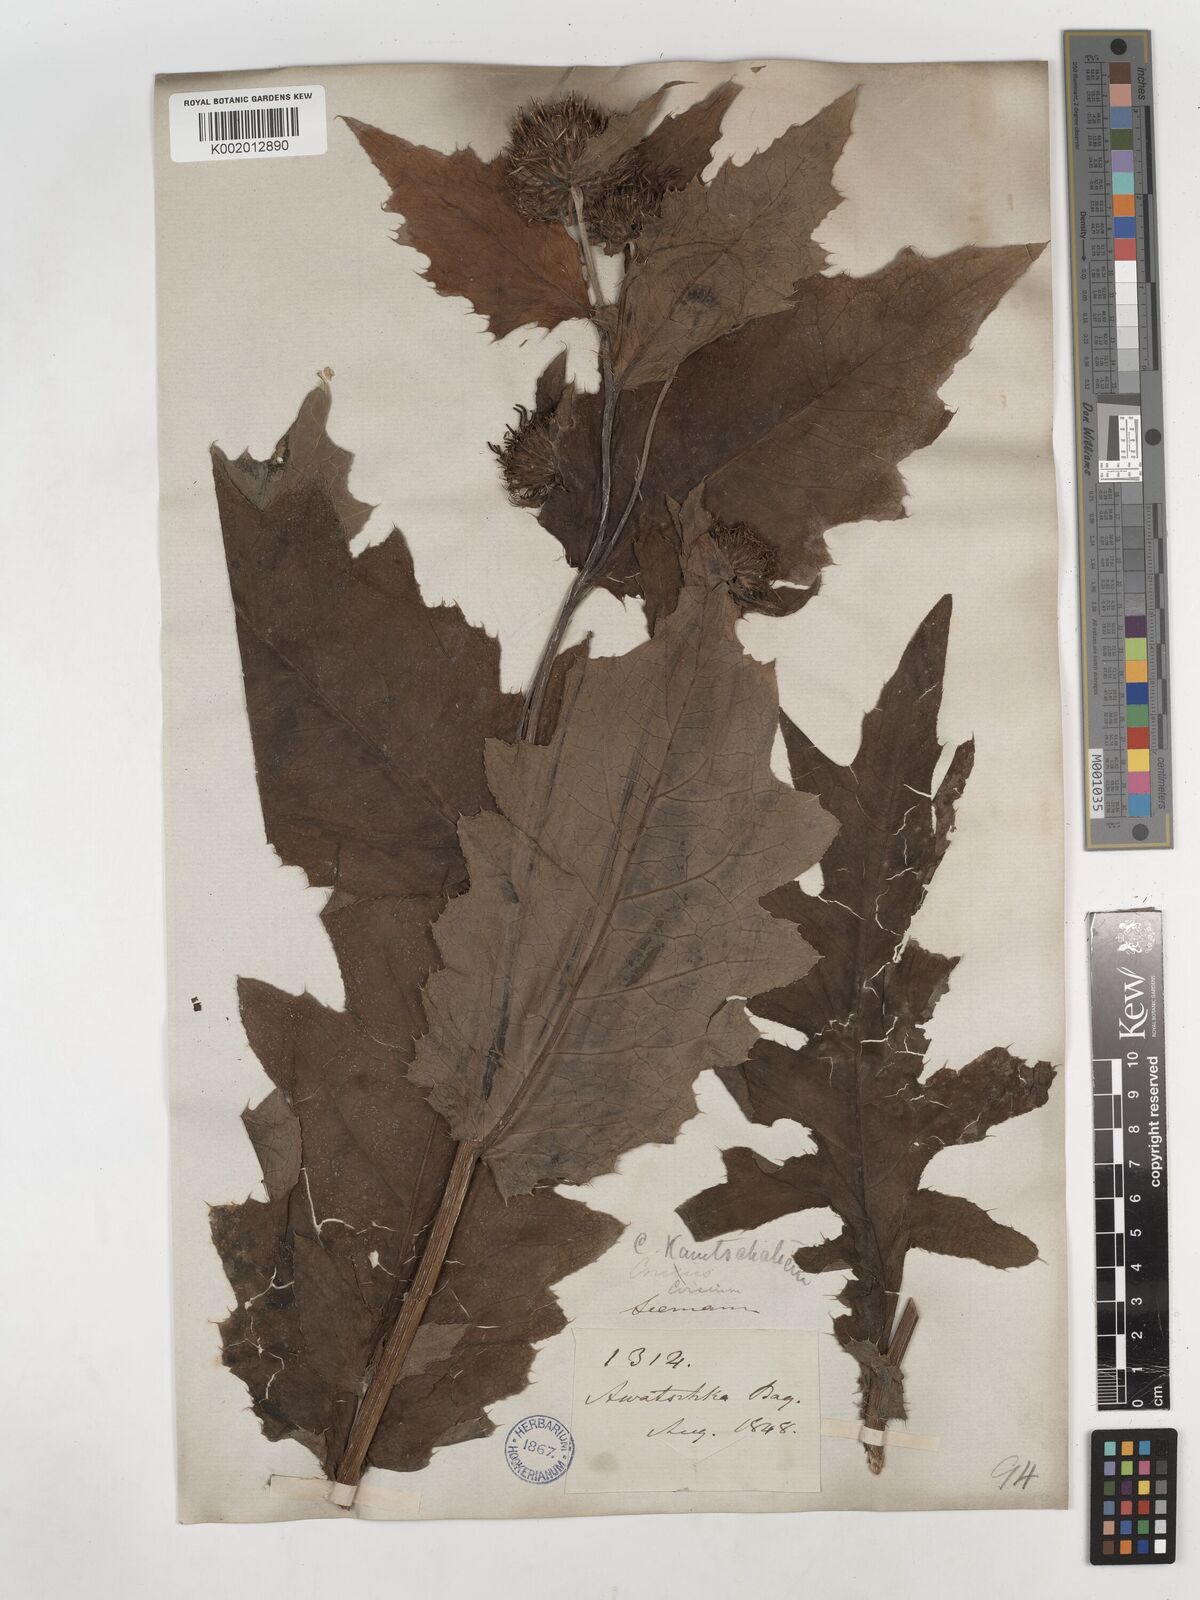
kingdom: Plantae
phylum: Tracheophyta
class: Magnoliopsida
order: Asterales
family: Asteraceae
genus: Cirsium
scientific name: Cirsium kamtschaticum
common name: Kamchatka thistle
